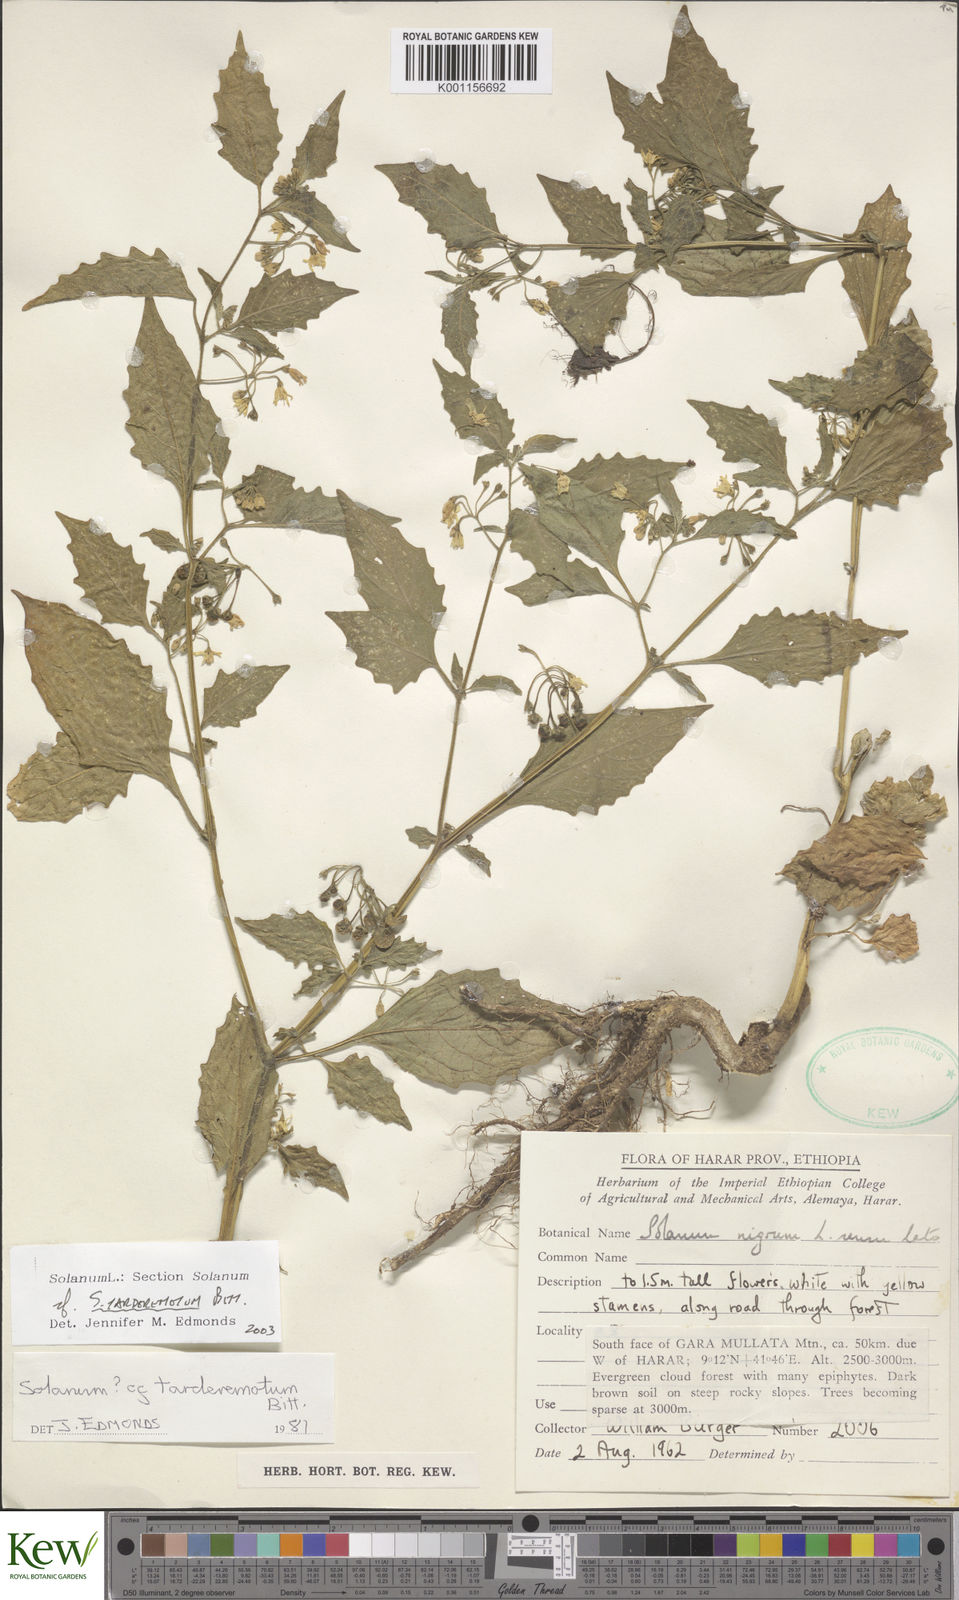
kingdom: Plantae
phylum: Tracheophyta
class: Magnoliopsida
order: Solanales
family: Solanaceae
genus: Solanum
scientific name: Solanum tarderemotum
